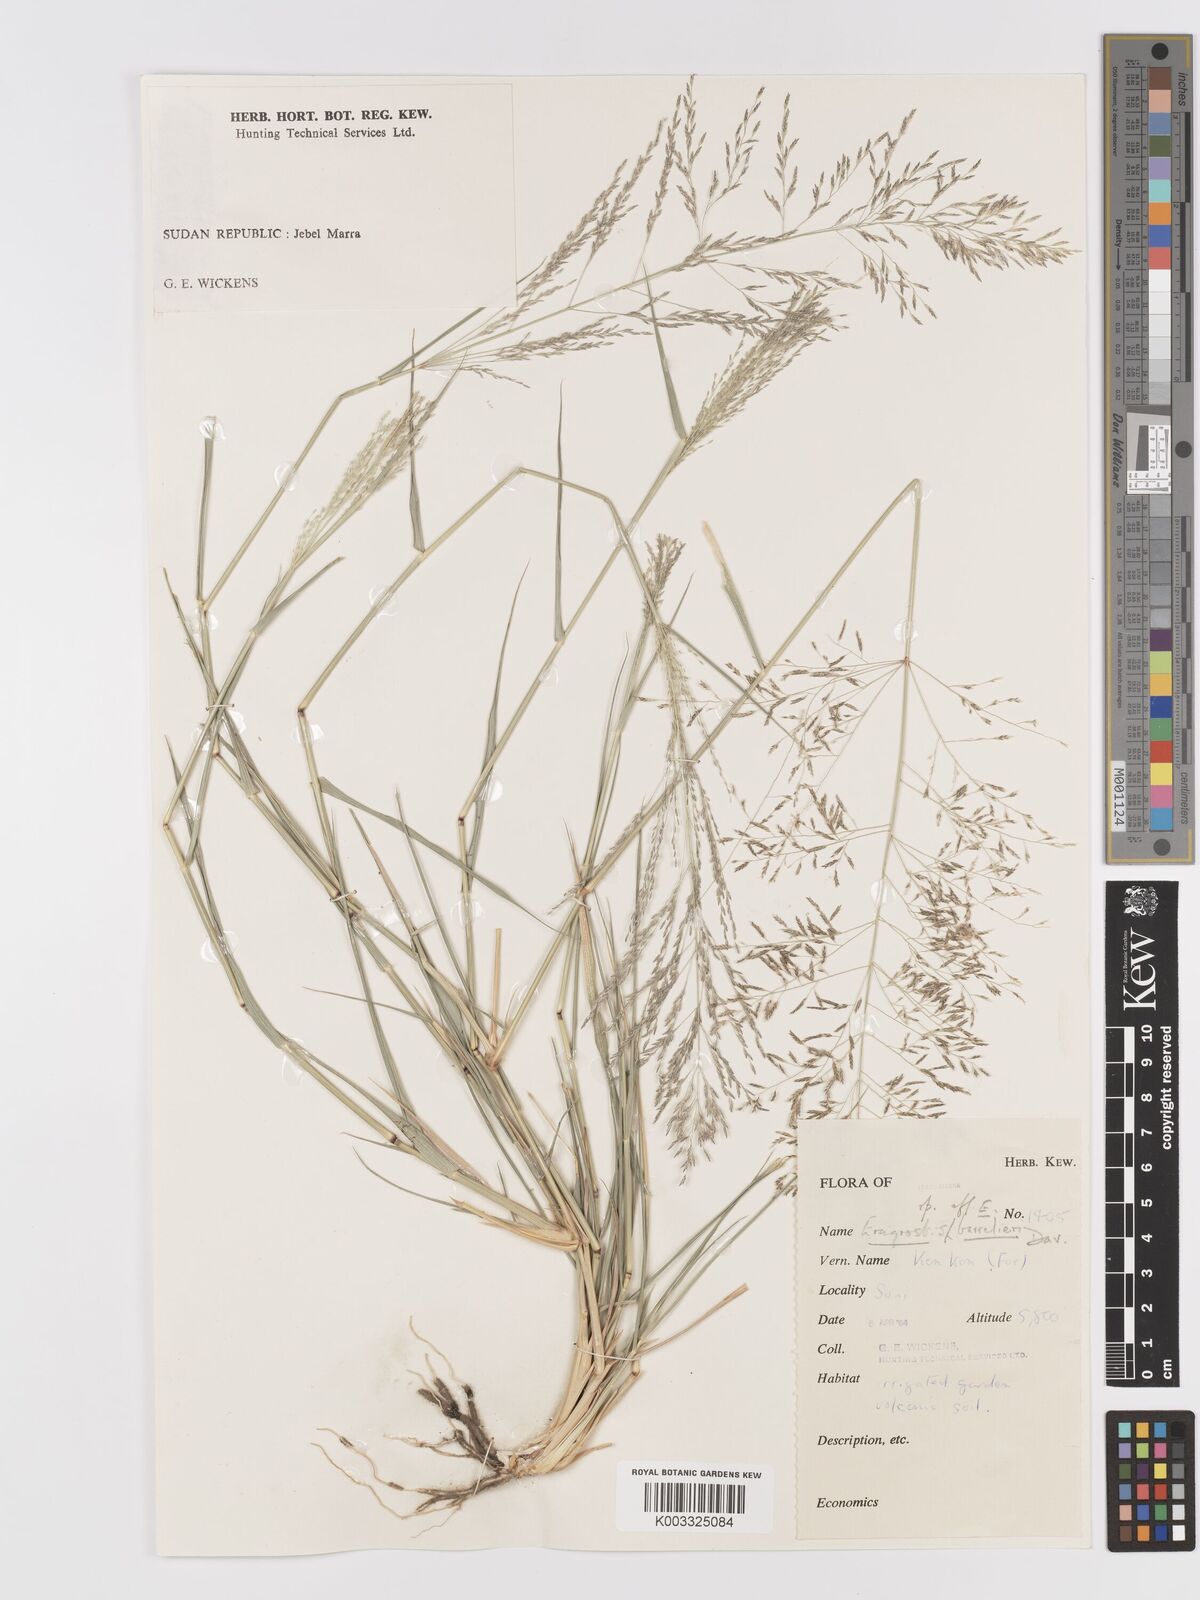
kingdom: Plantae
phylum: Tracheophyta
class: Liliopsida
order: Poales
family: Poaceae
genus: Eragrostis
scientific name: Eragrostis cylindriflora
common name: Cylinderflower lovegrass
